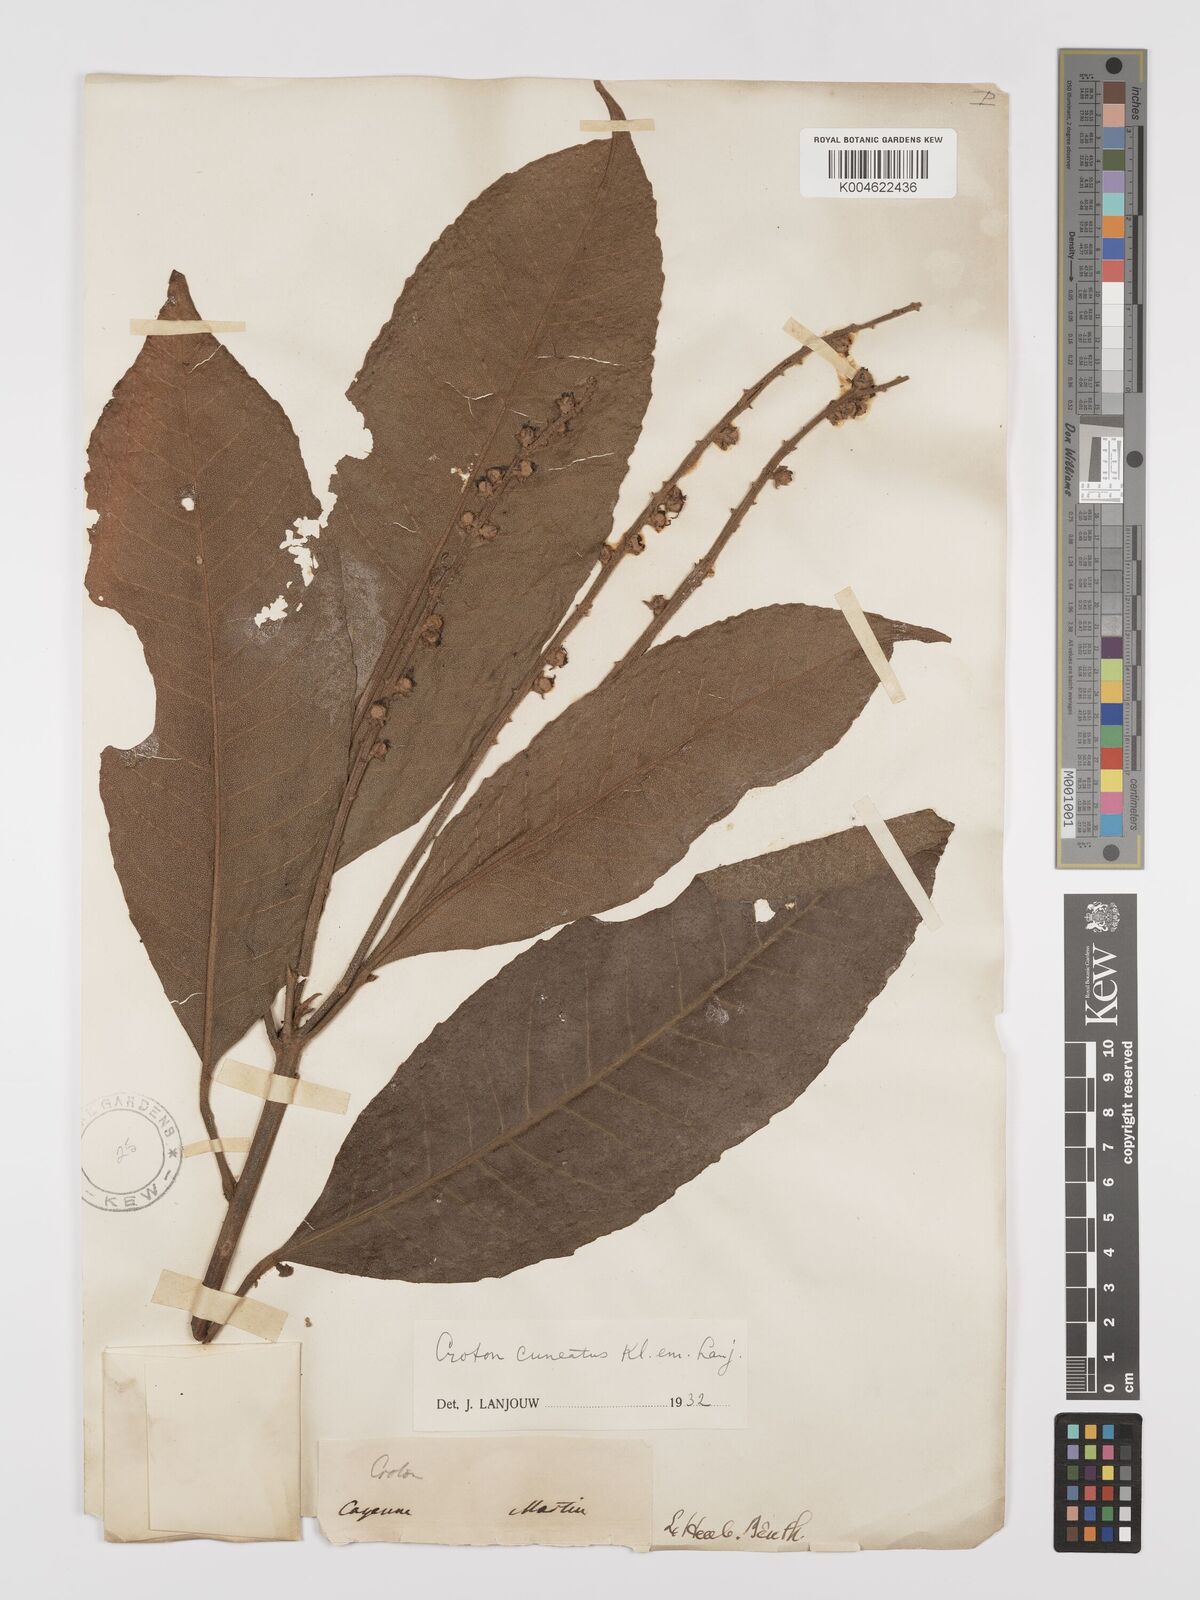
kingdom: Plantae
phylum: Tracheophyta
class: Magnoliopsida
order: Malpighiales
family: Euphorbiaceae
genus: Croton
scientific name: Croton
